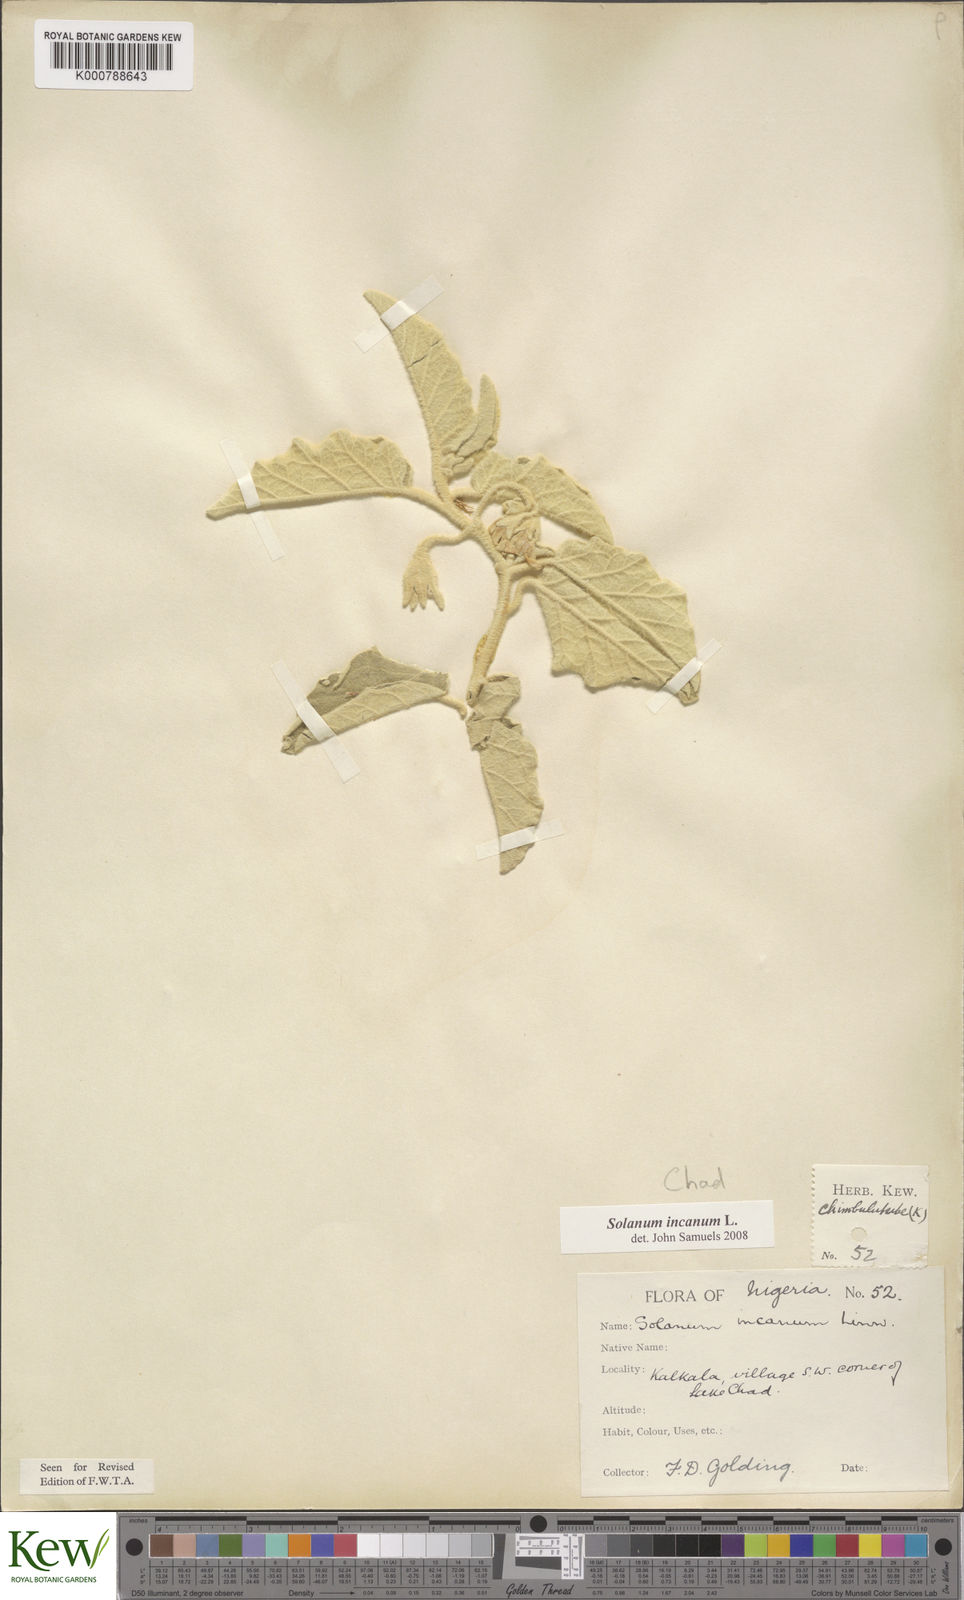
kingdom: Plantae
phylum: Tracheophyta
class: Magnoliopsida
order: Solanales
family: Solanaceae
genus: Solanum
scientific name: Solanum incanum
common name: Bitter apple
